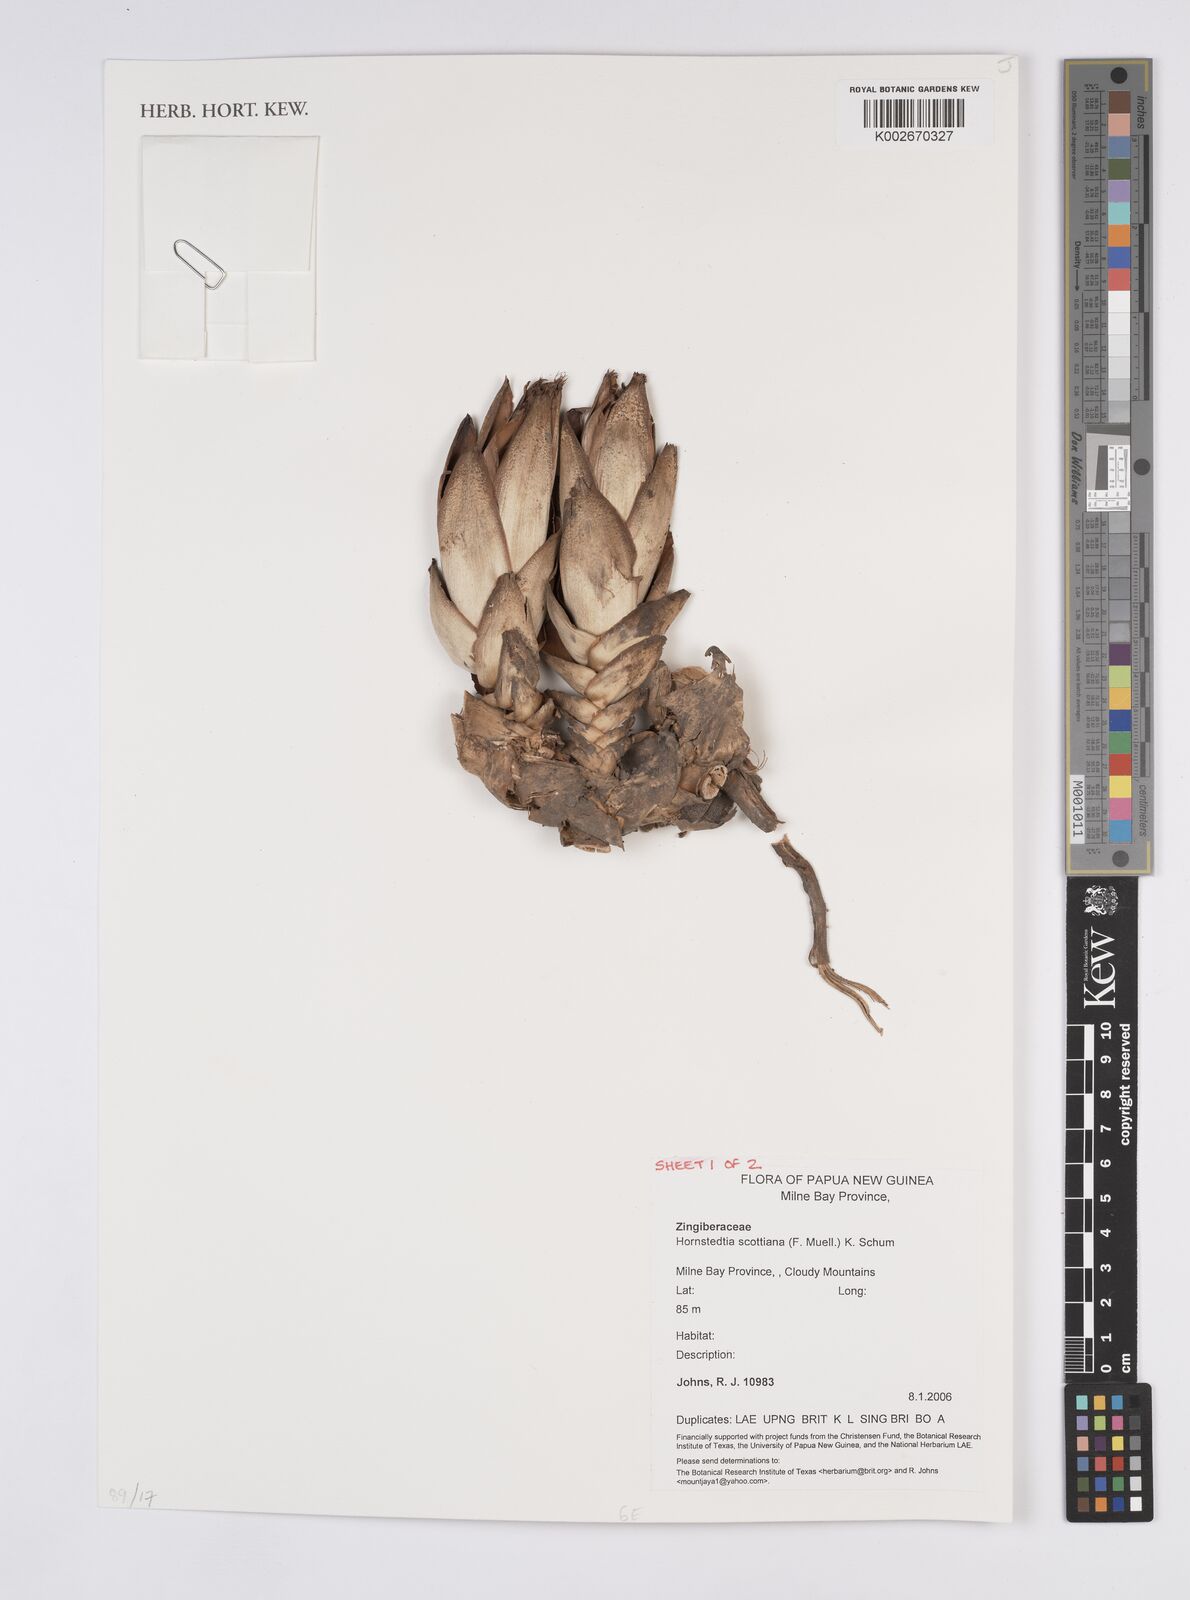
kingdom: Plantae
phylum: Tracheophyta
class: Liliopsida
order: Zingiberales
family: Zingiberaceae
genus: Hornstedtia
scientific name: Hornstedtia scottiana
